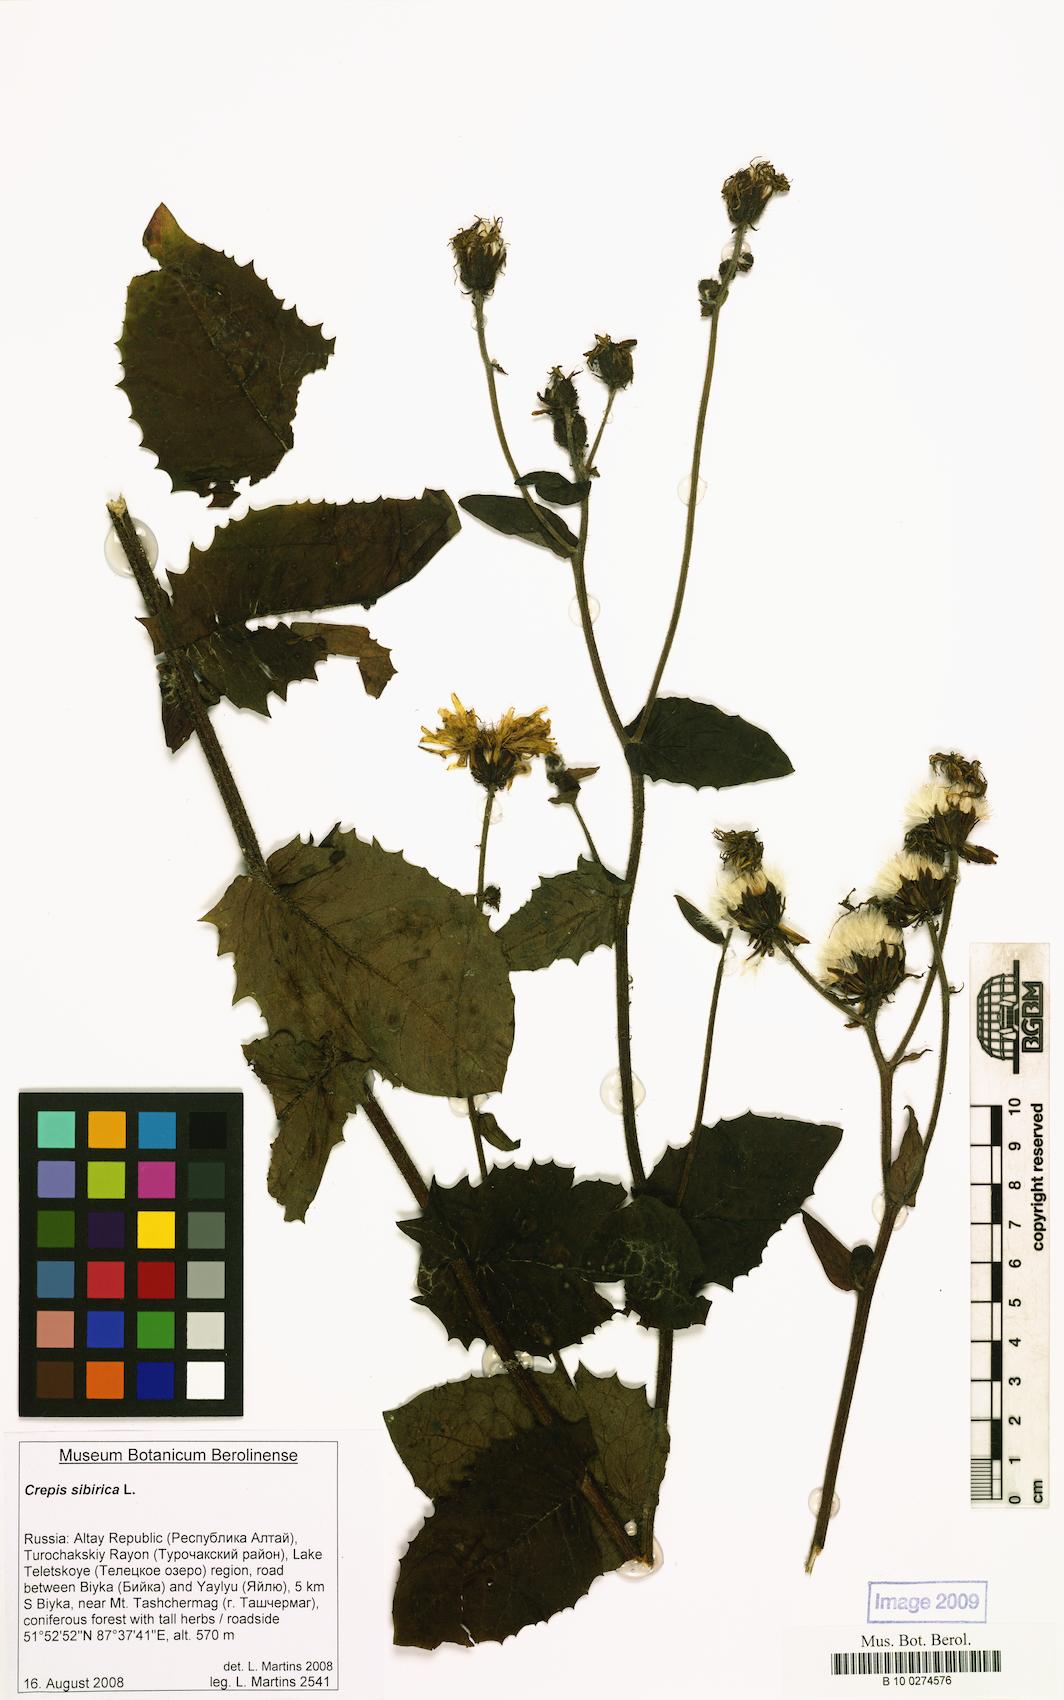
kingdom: Plantae
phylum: Tracheophyta
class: Magnoliopsida
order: Asterales
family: Asteraceae
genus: Crepis
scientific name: Crepis sibirica
